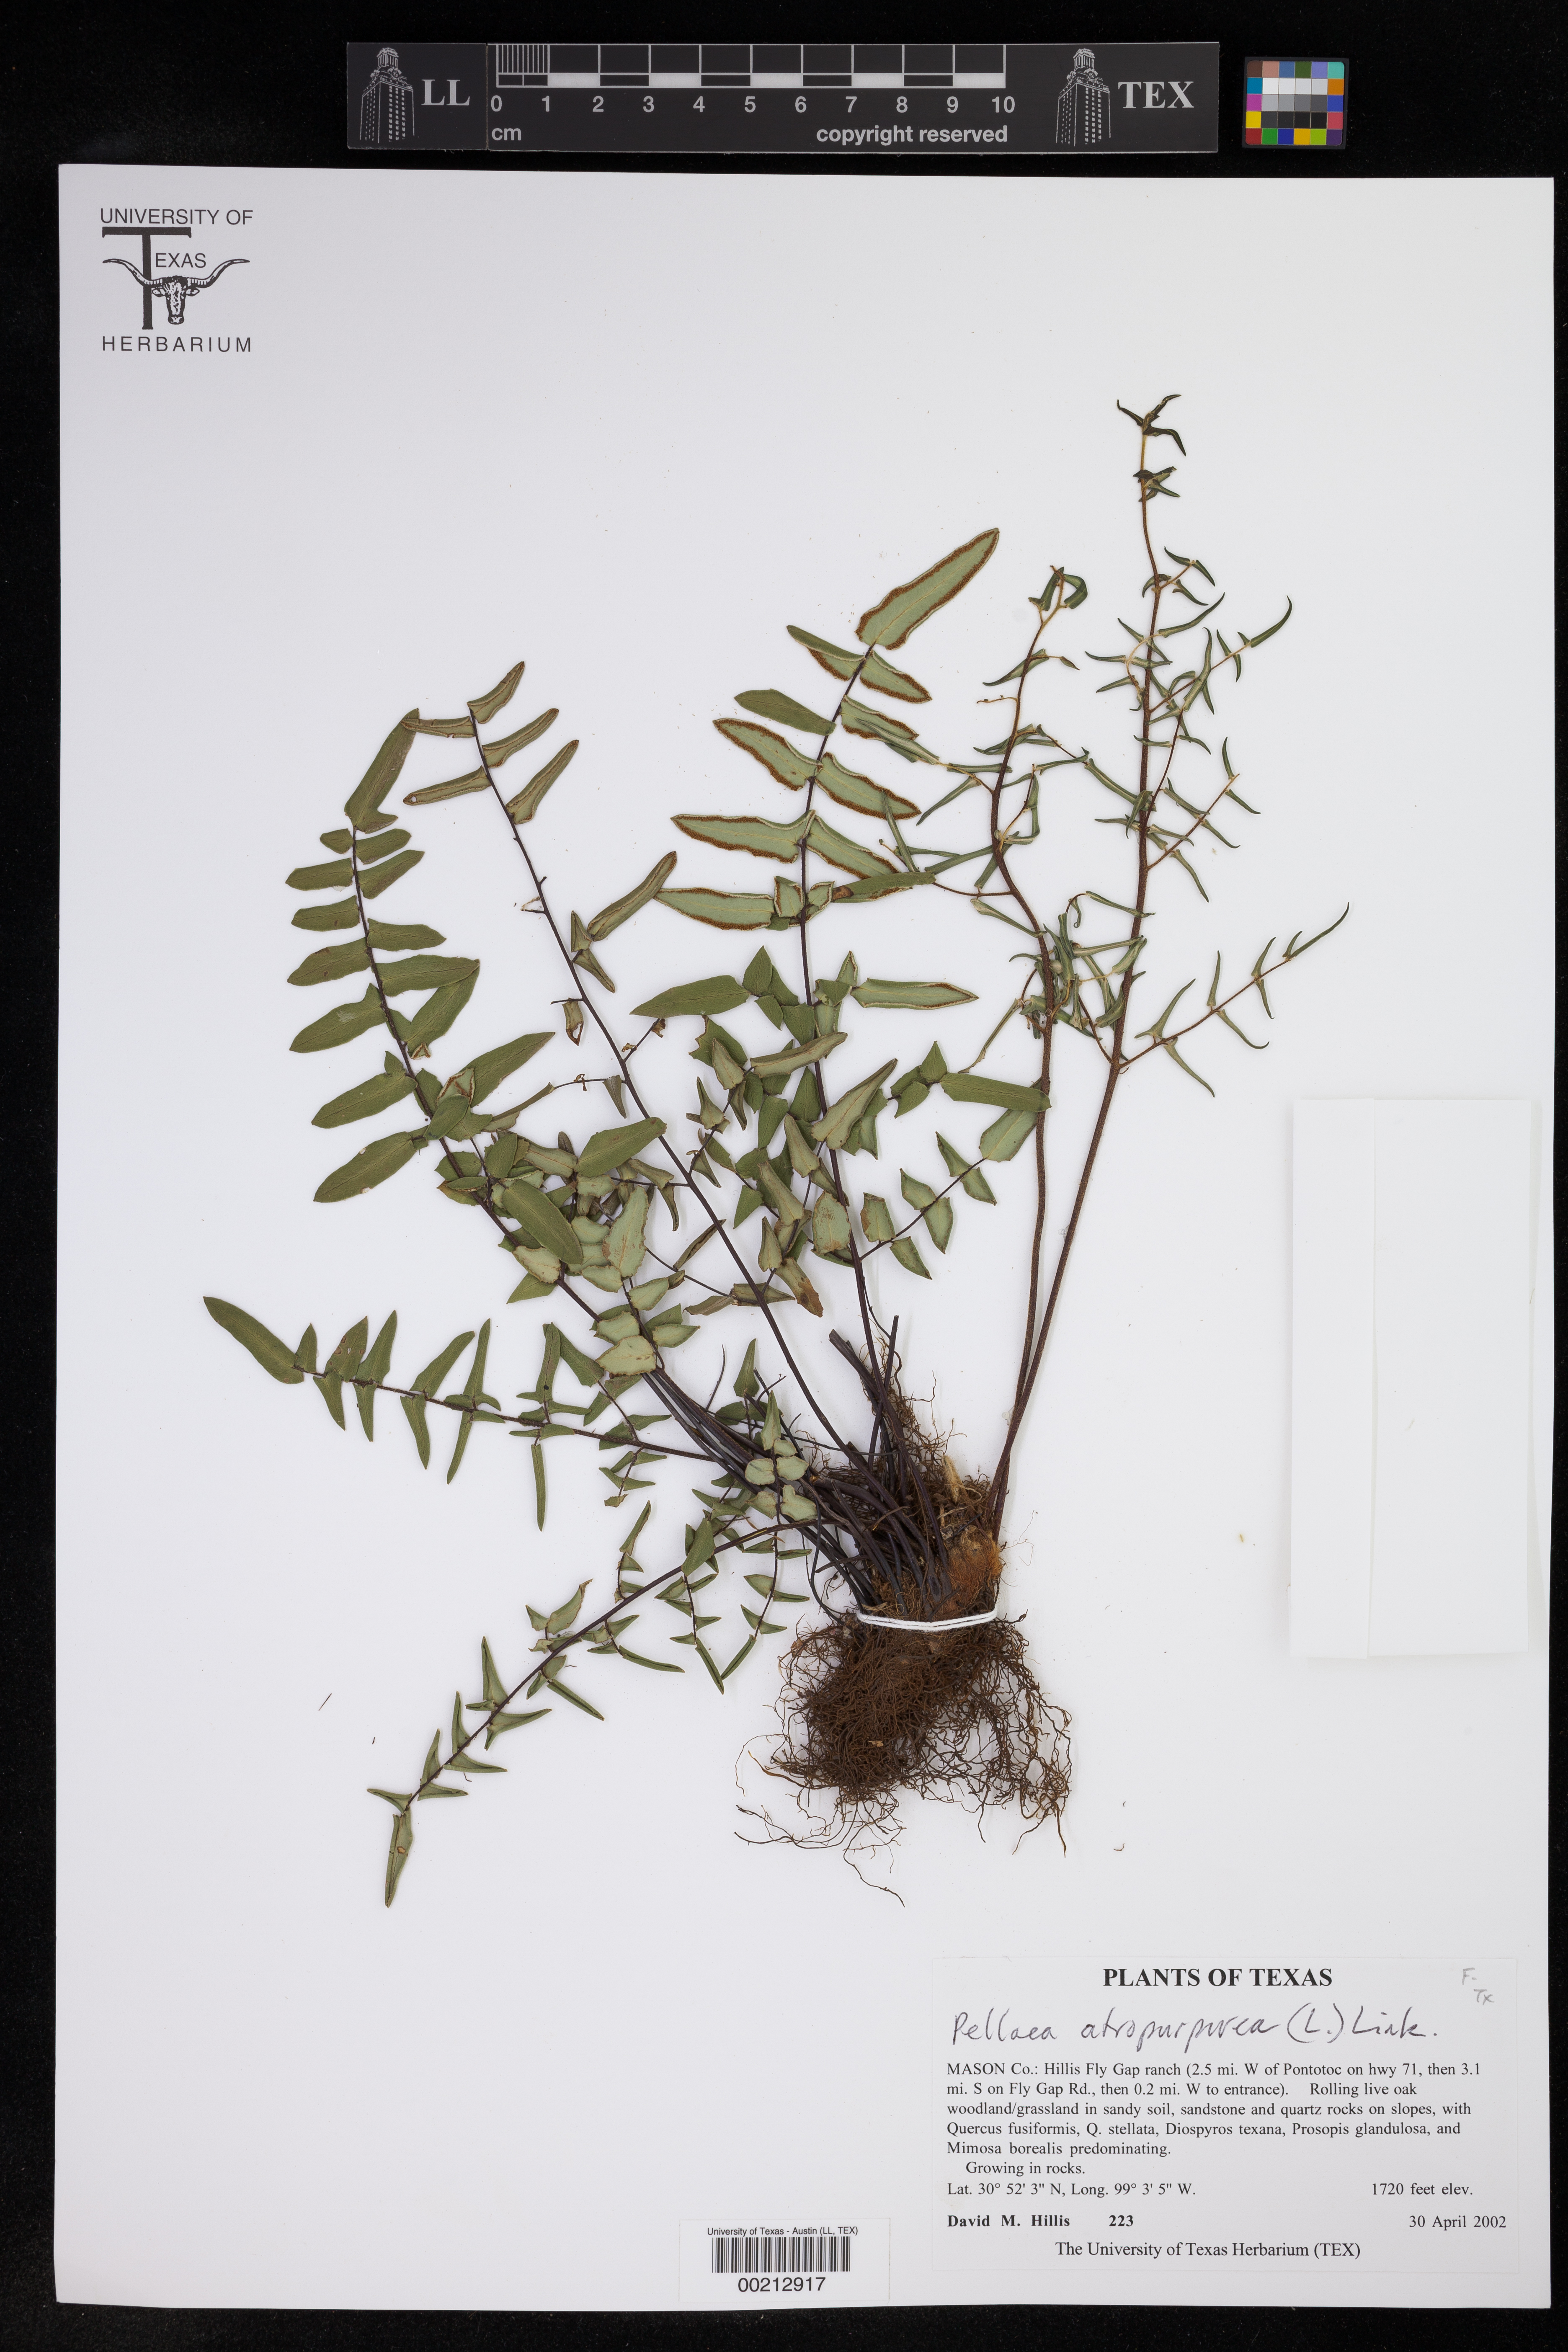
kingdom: Plantae
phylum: Tracheophyta
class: Polypodiopsida
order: Polypodiales
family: Pteridaceae
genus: Pellaea
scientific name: Pellaea atropurpurea
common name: Hairy cliffbrake
